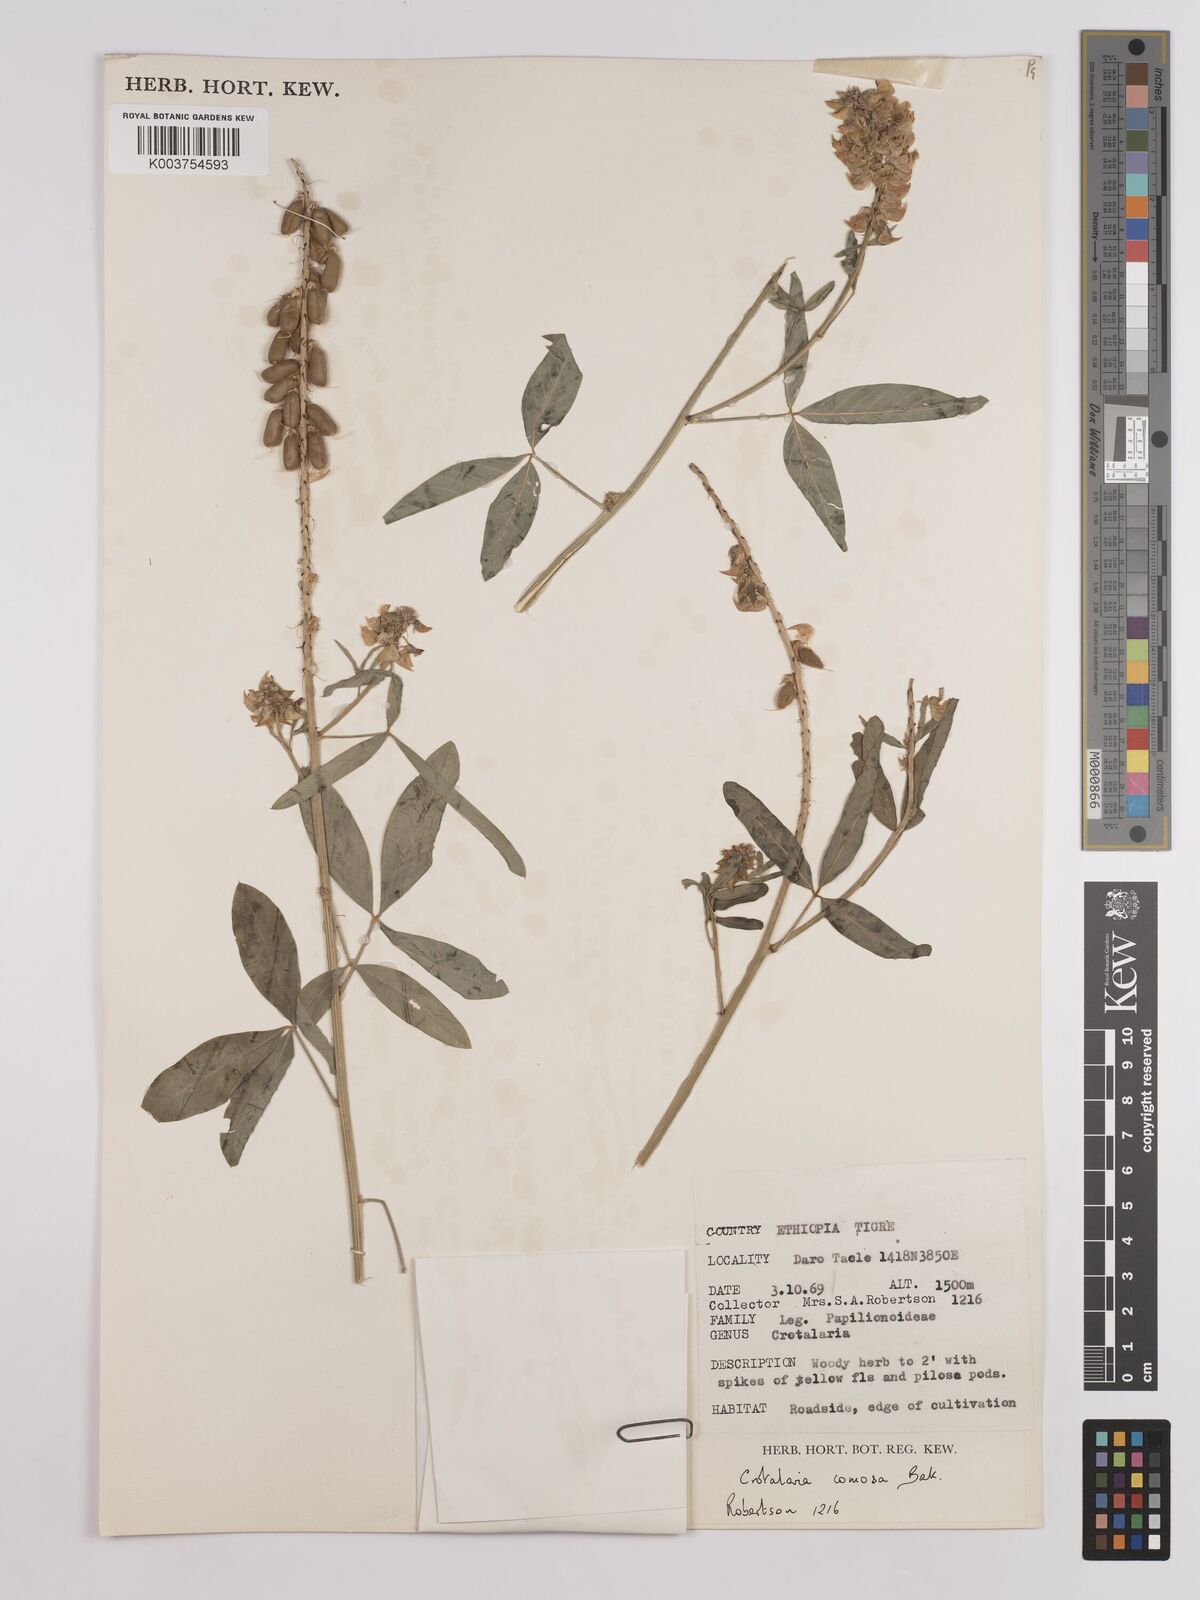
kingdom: Plantae
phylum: Tracheophyta
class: Magnoliopsida
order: Fabales
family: Fabaceae
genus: Crotalaria
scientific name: Crotalaria comosa
